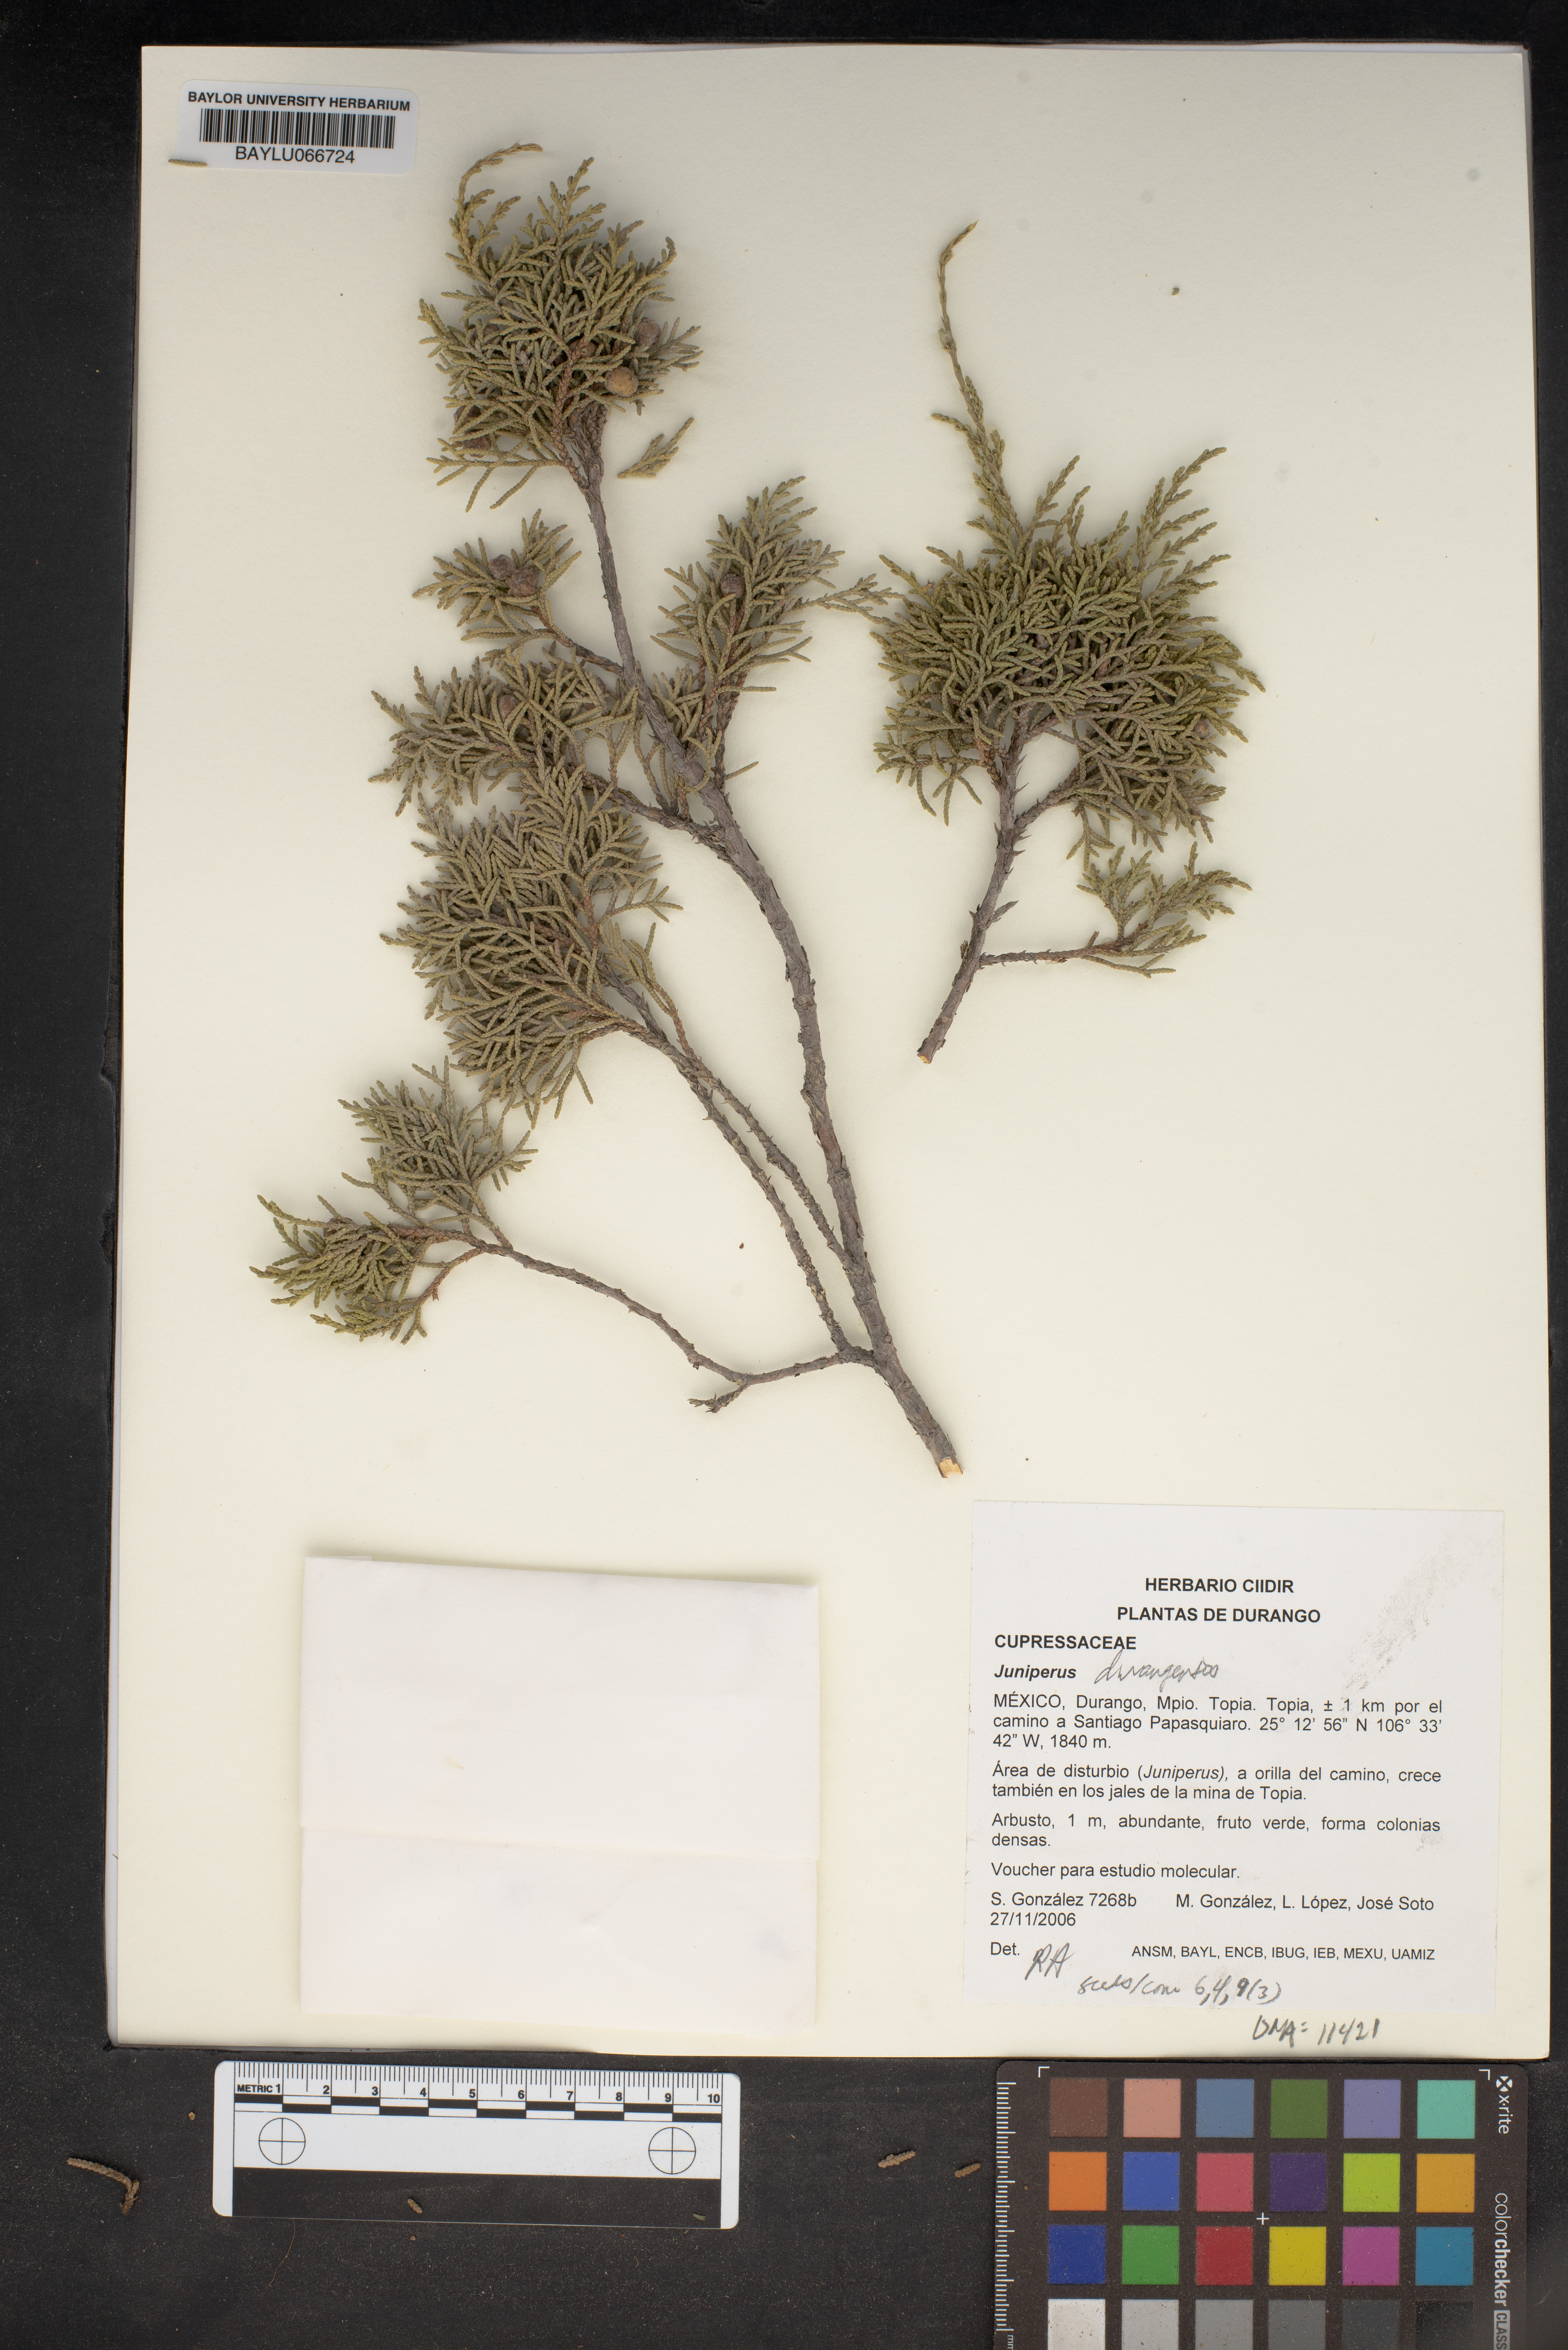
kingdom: Plantae
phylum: Tracheophyta
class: Pinopsida
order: Pinales
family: Cupressaceae
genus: Juniperus
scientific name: Juniperus
